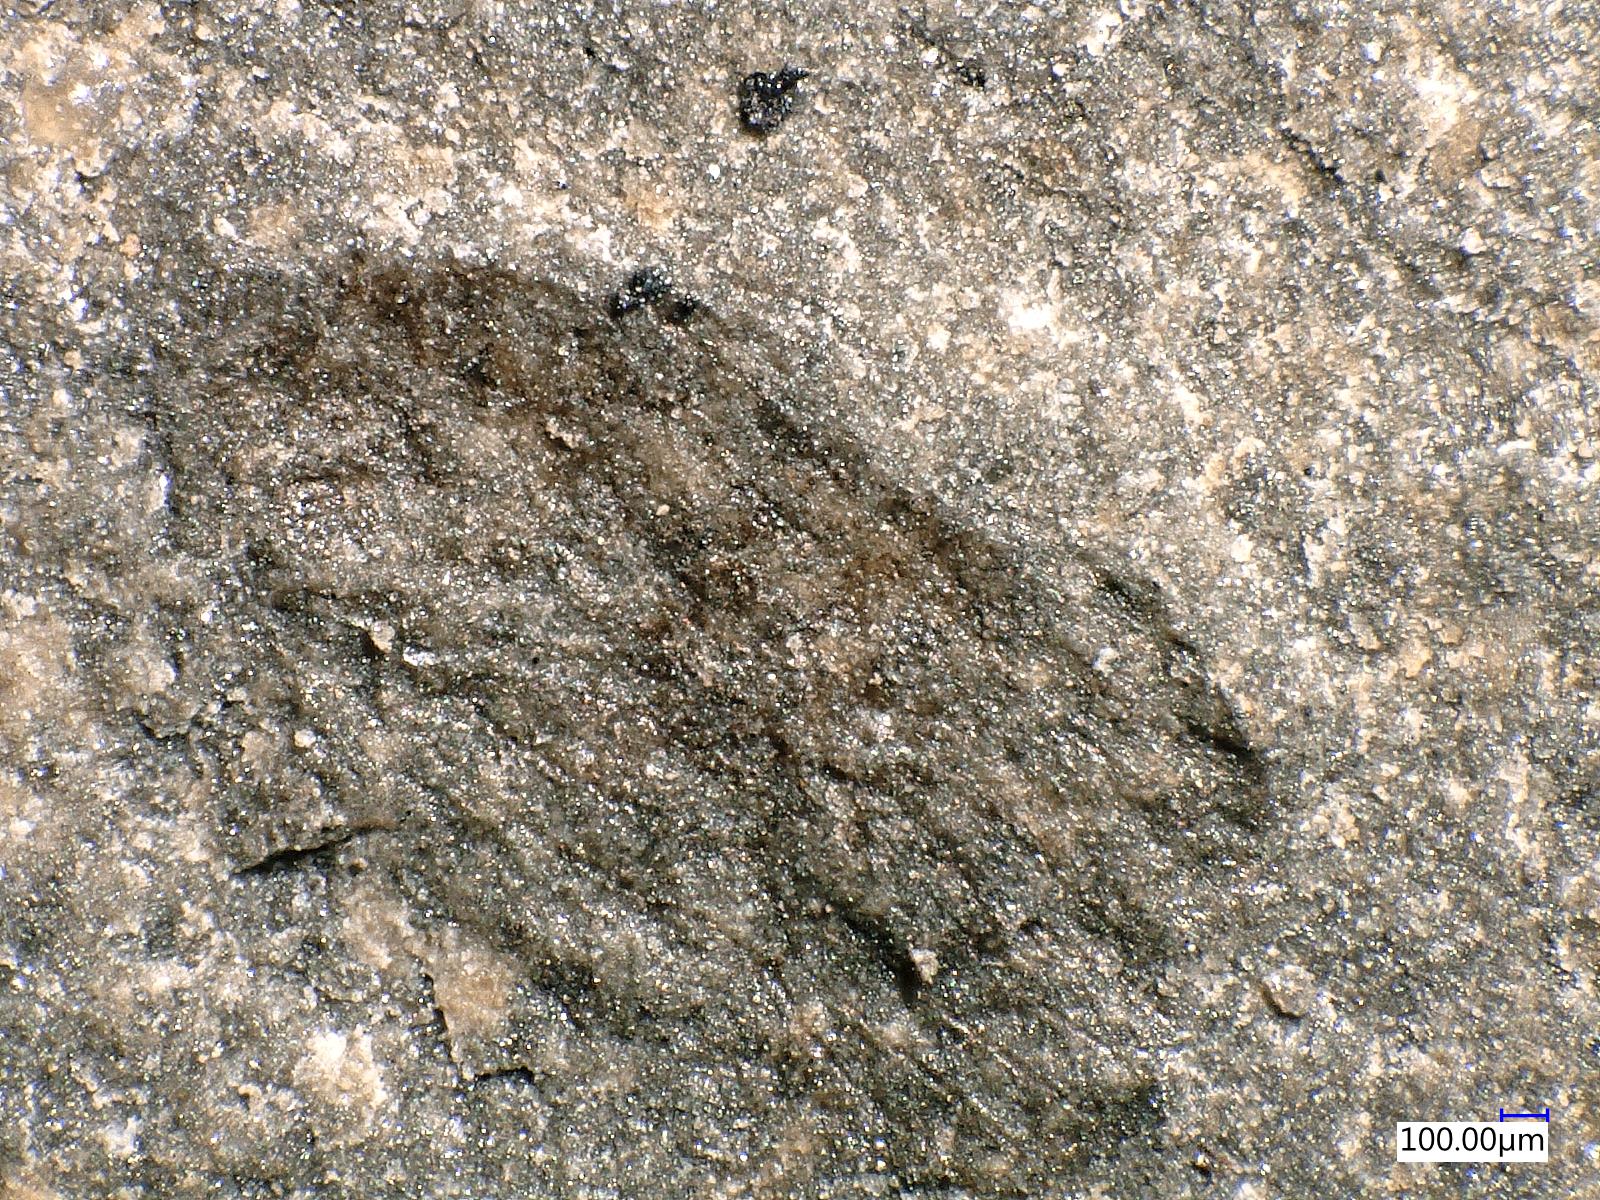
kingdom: Animalia
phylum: Arthropoda
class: Insecta
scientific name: Insecta
